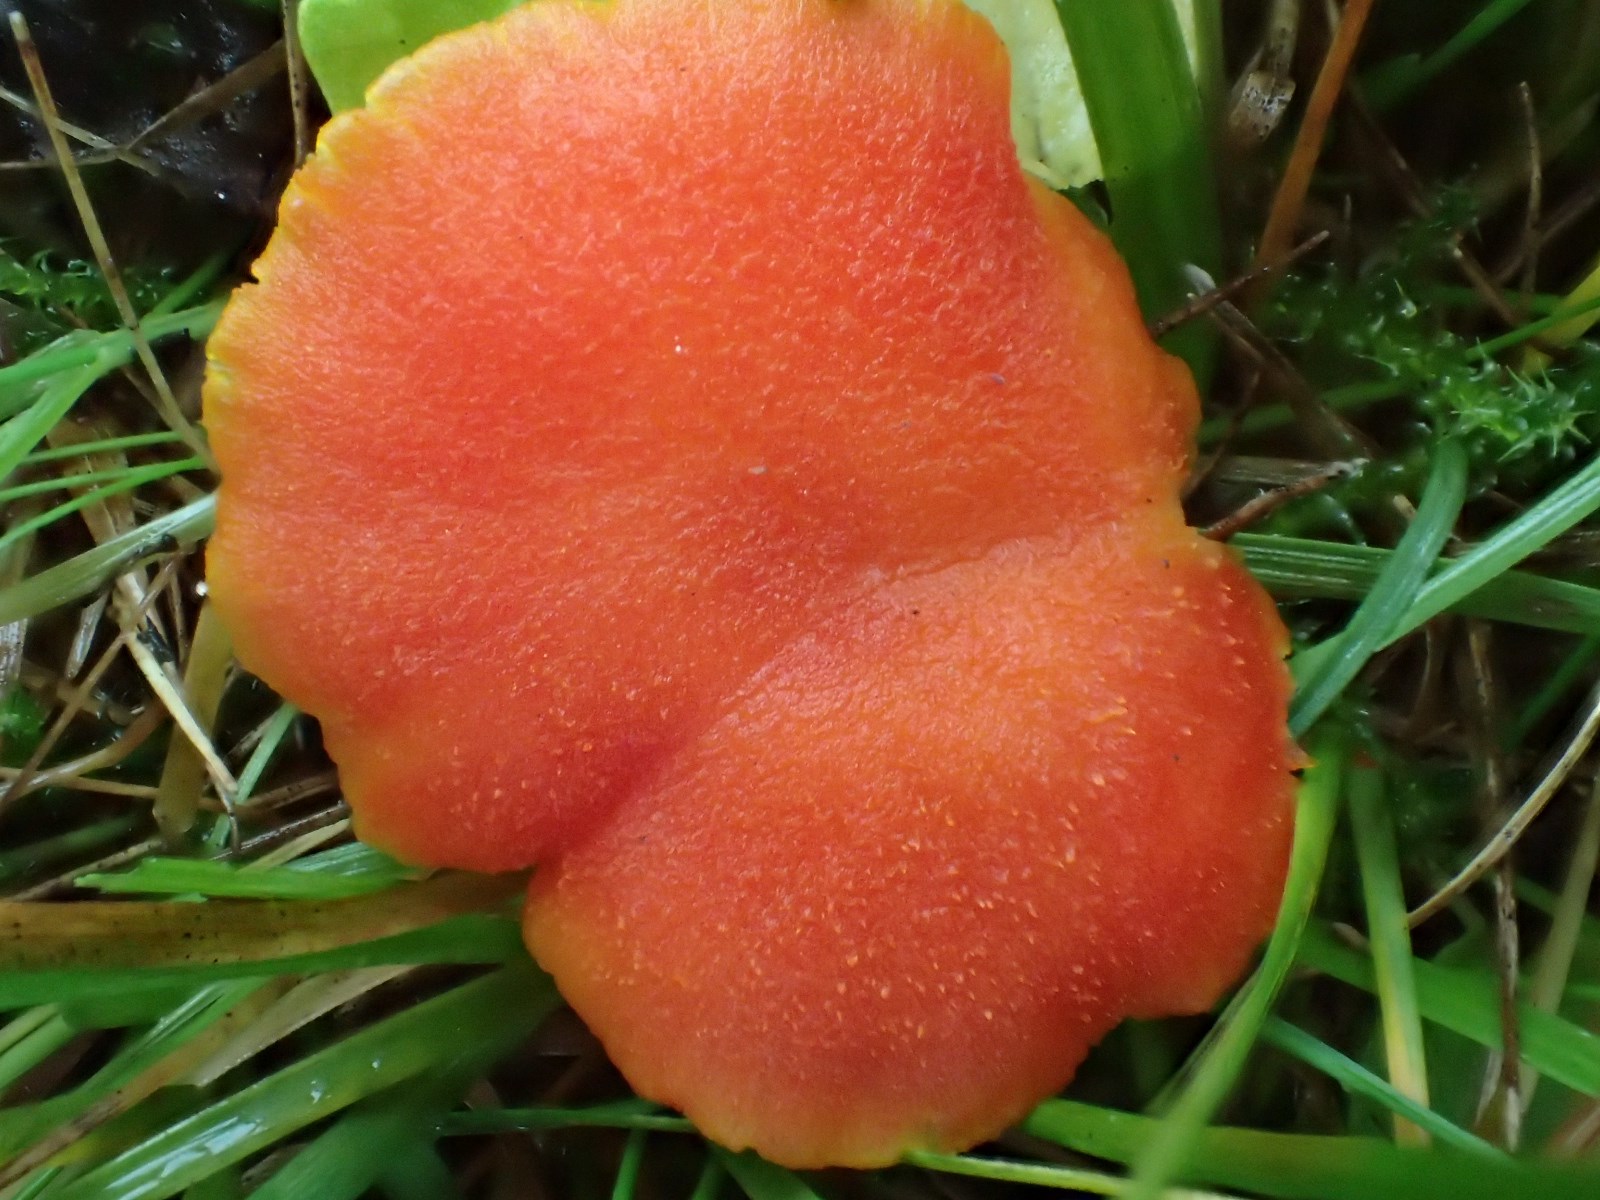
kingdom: Fungi
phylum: Basidiomycota
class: Agaricomycetes
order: Agaricales
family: Hygrophoraceae
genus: Hygrocybe
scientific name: Hygrocybe miniata
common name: mønje-vokshat
